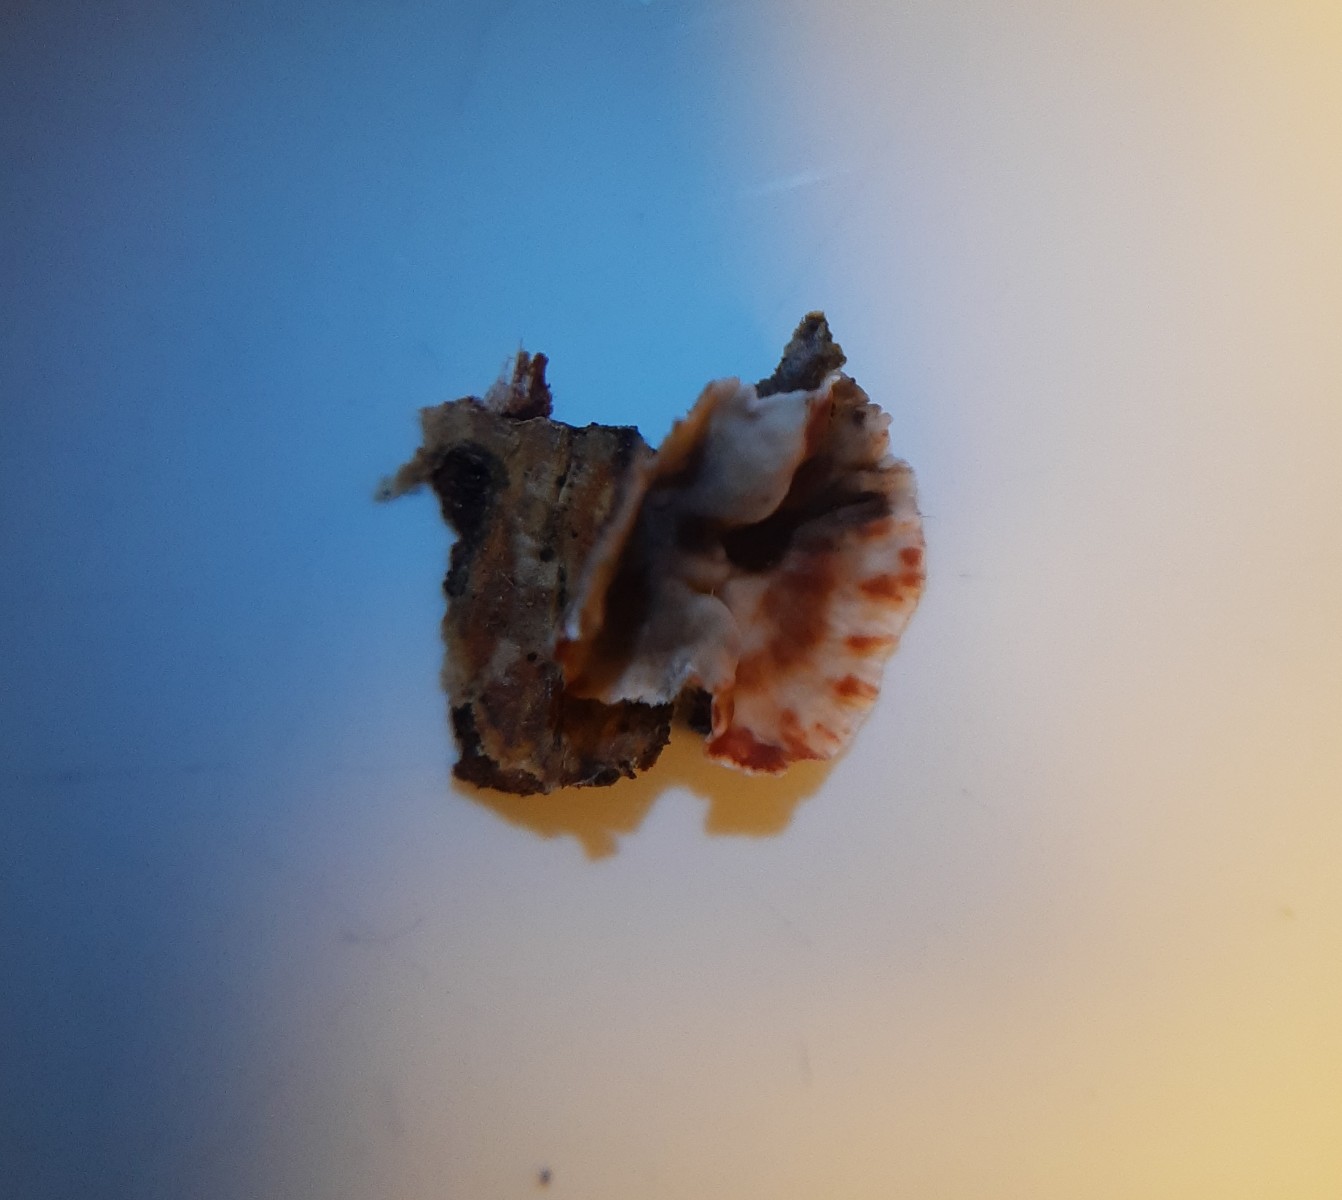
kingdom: Fungi
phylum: Basidiomycota
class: Agaricomycetes
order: Russulales
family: Stereaceae
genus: Stereum
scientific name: Stereum sanguinolentum
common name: blødende lædersvamp
